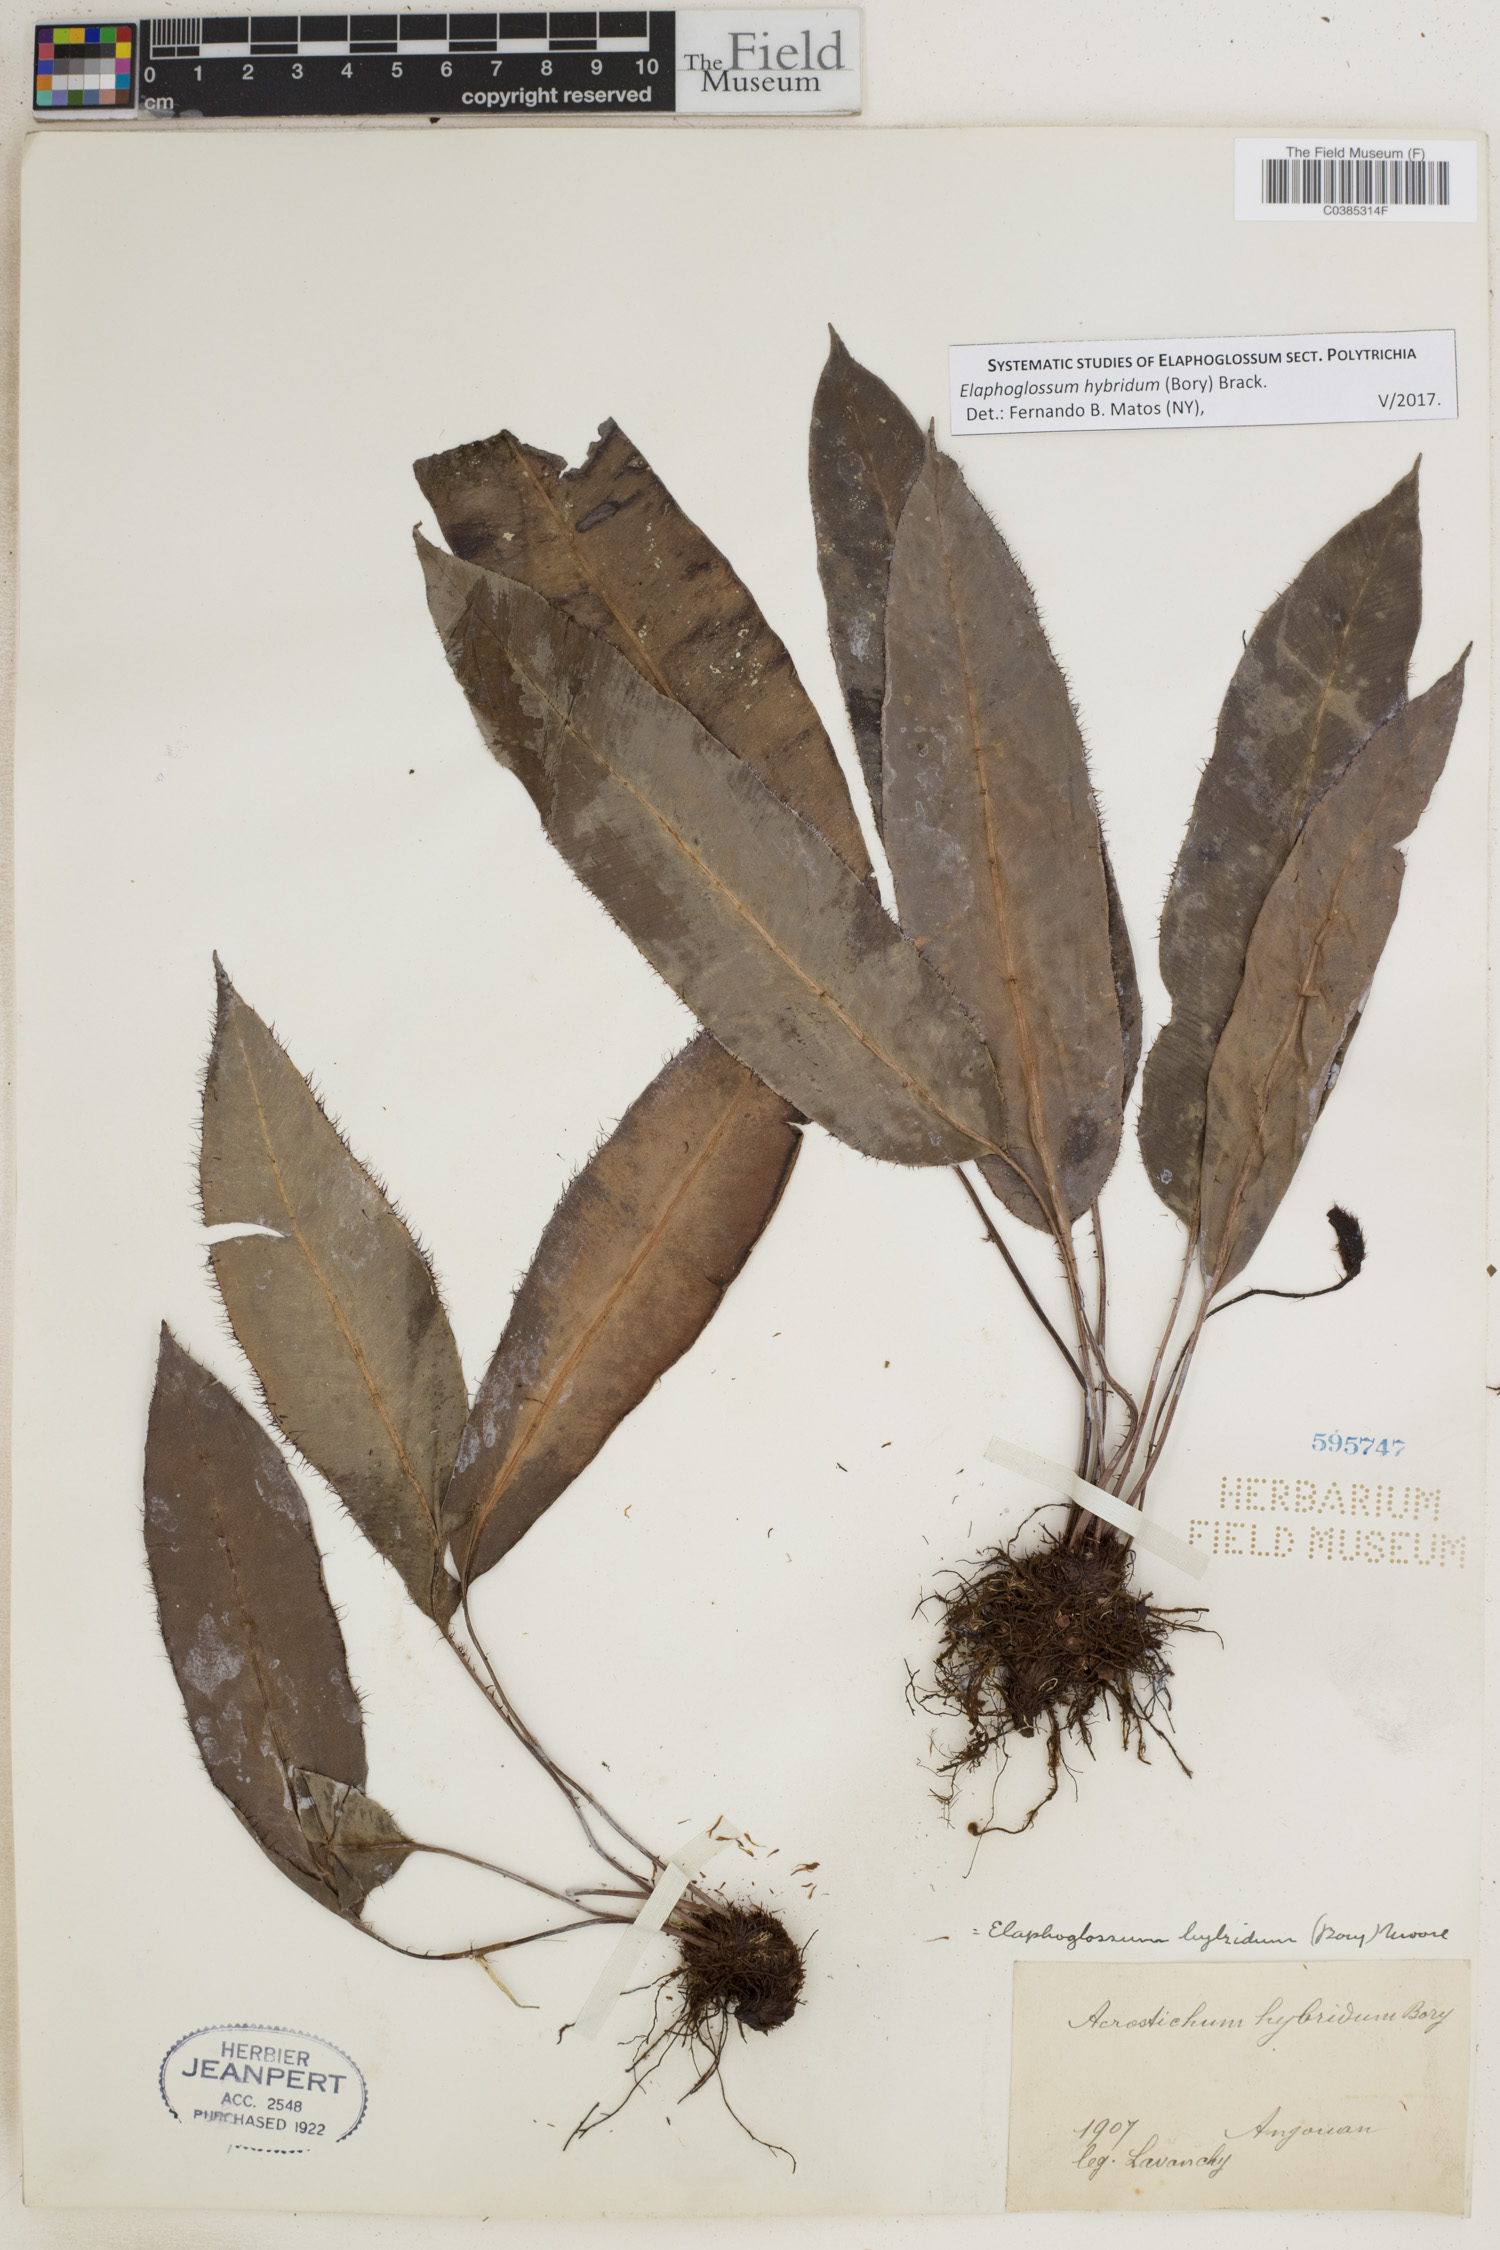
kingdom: Plantae
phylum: Tracheophyta
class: Polypodiopsida
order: Polypodiales
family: Dryopteridaceae
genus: Elaphoglossum
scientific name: Elaphoglossum hybridum
